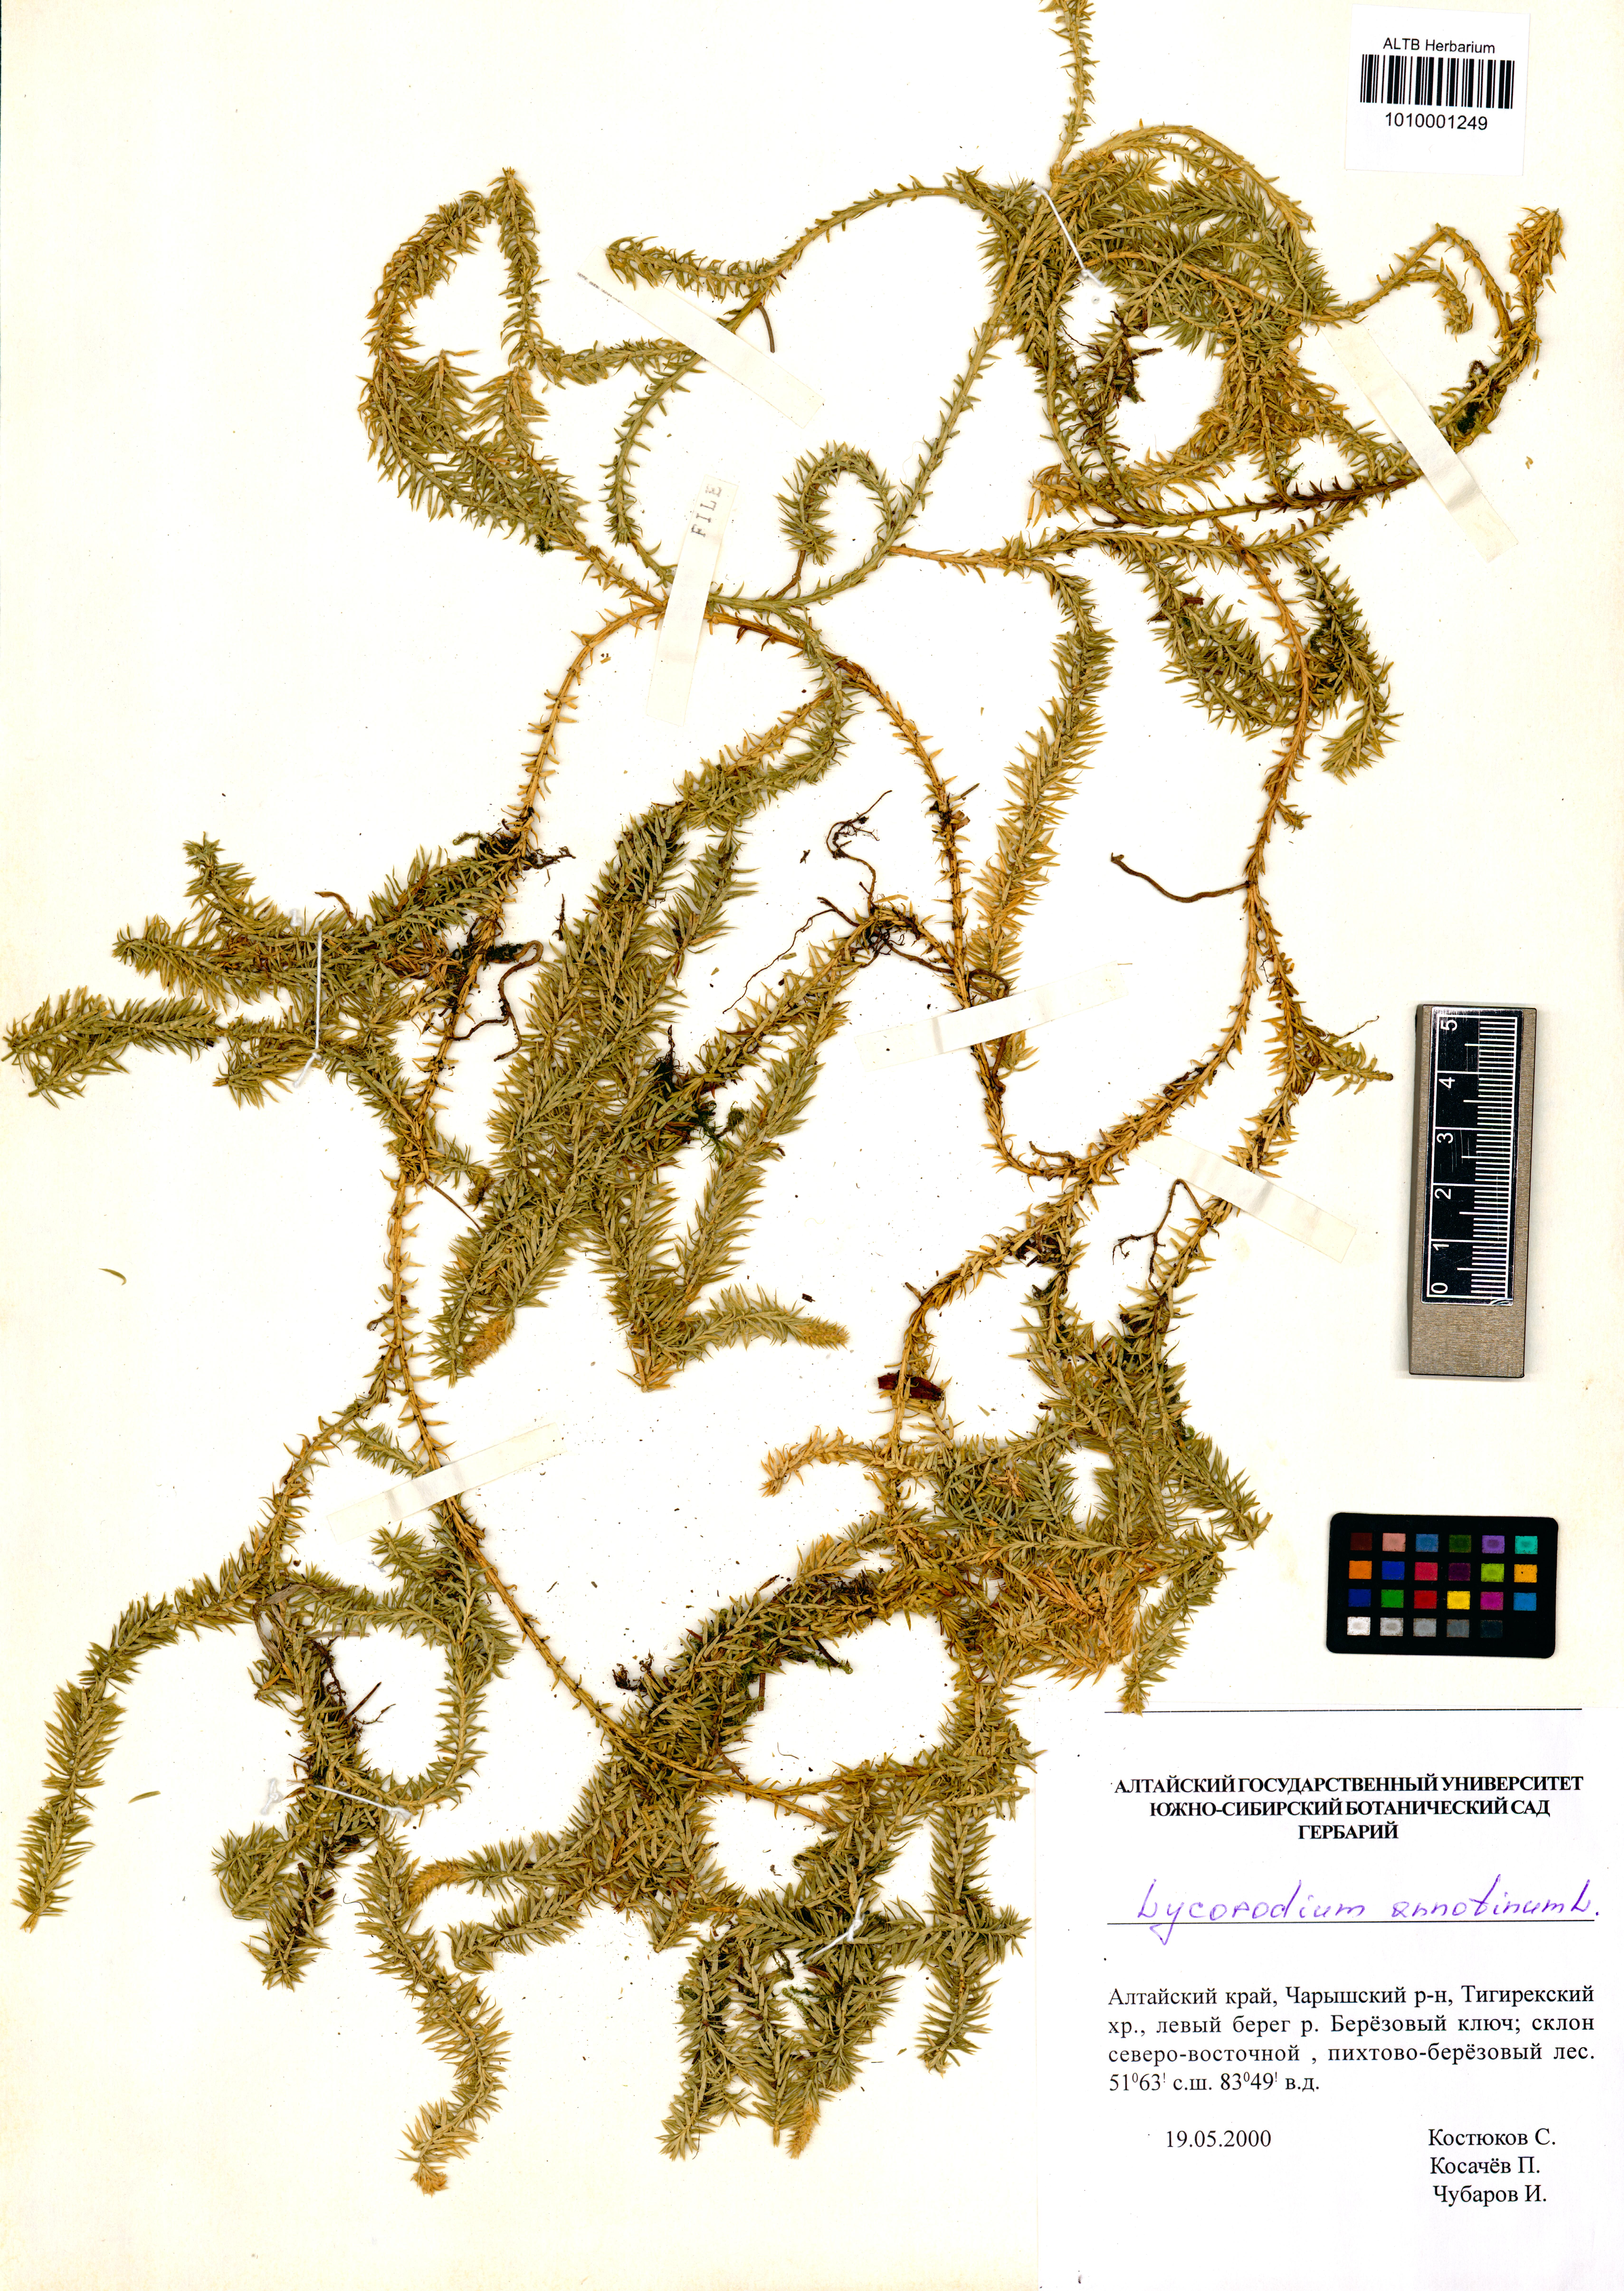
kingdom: Plantae
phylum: Tracheophyta
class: Lycopodiopsida
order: Lycopodiales
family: Lycopodiaceae
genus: Spinulum
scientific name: Spinulum annotinum
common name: Interrupted club-moss
